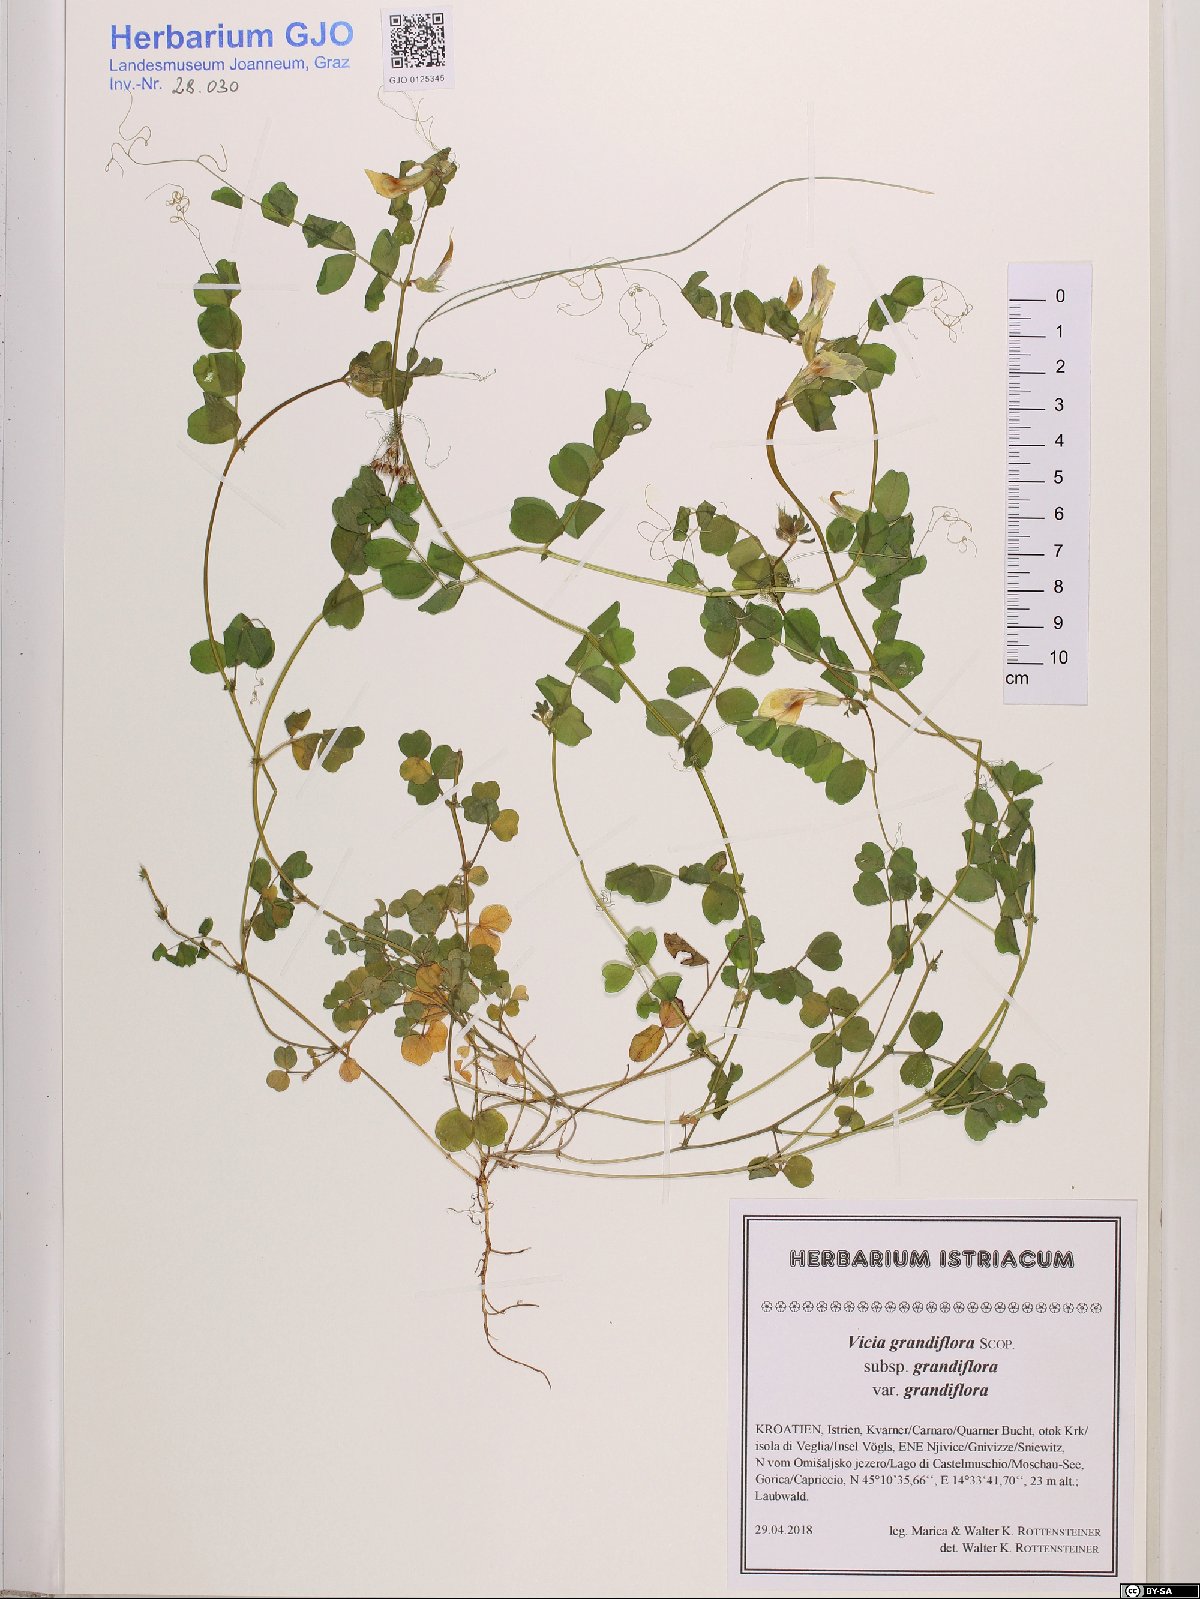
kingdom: Plantae
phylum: Tracheophyta
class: Magnoliopsida
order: Fabales
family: Fabaceae
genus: Vicia
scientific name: Vicia grandiflora
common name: Large yellow vetch
